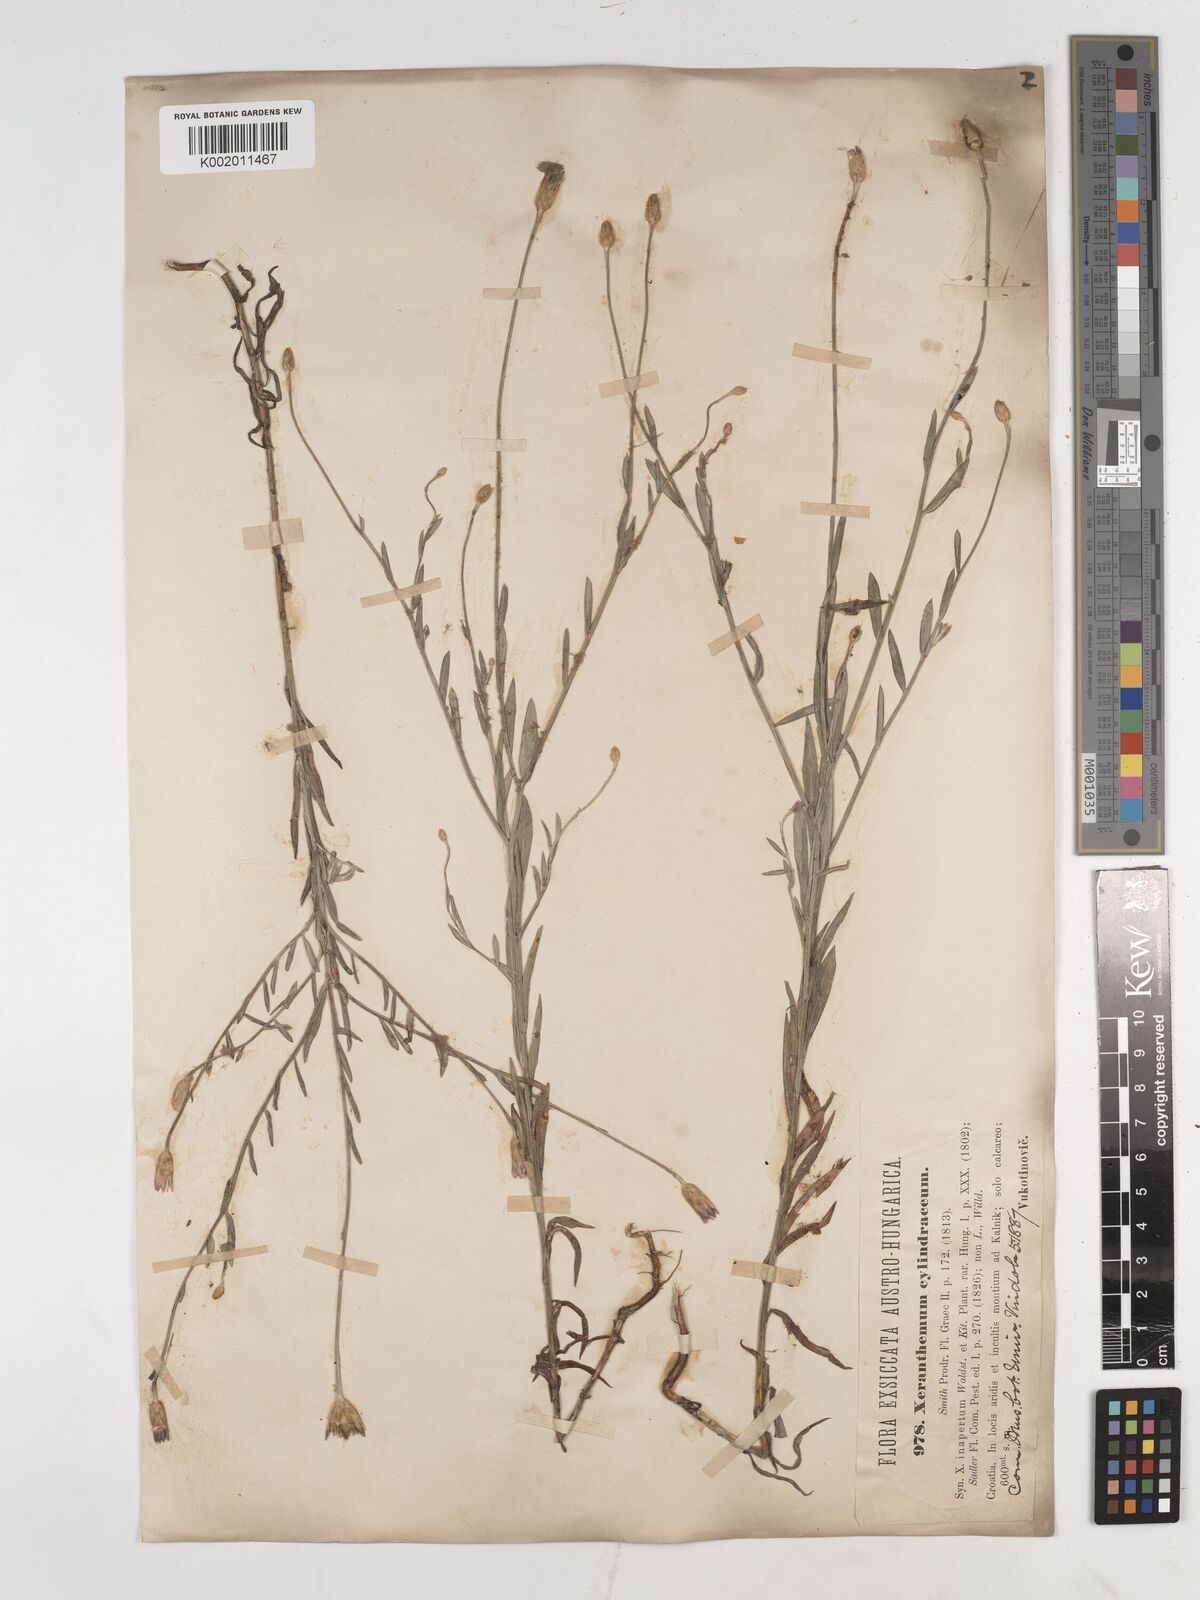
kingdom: Plantae
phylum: Tracheophyta
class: Magnoliopsida
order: Asterales
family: Asteraceae
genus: Xeranthemum
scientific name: Xeranthemum cylindraceum
